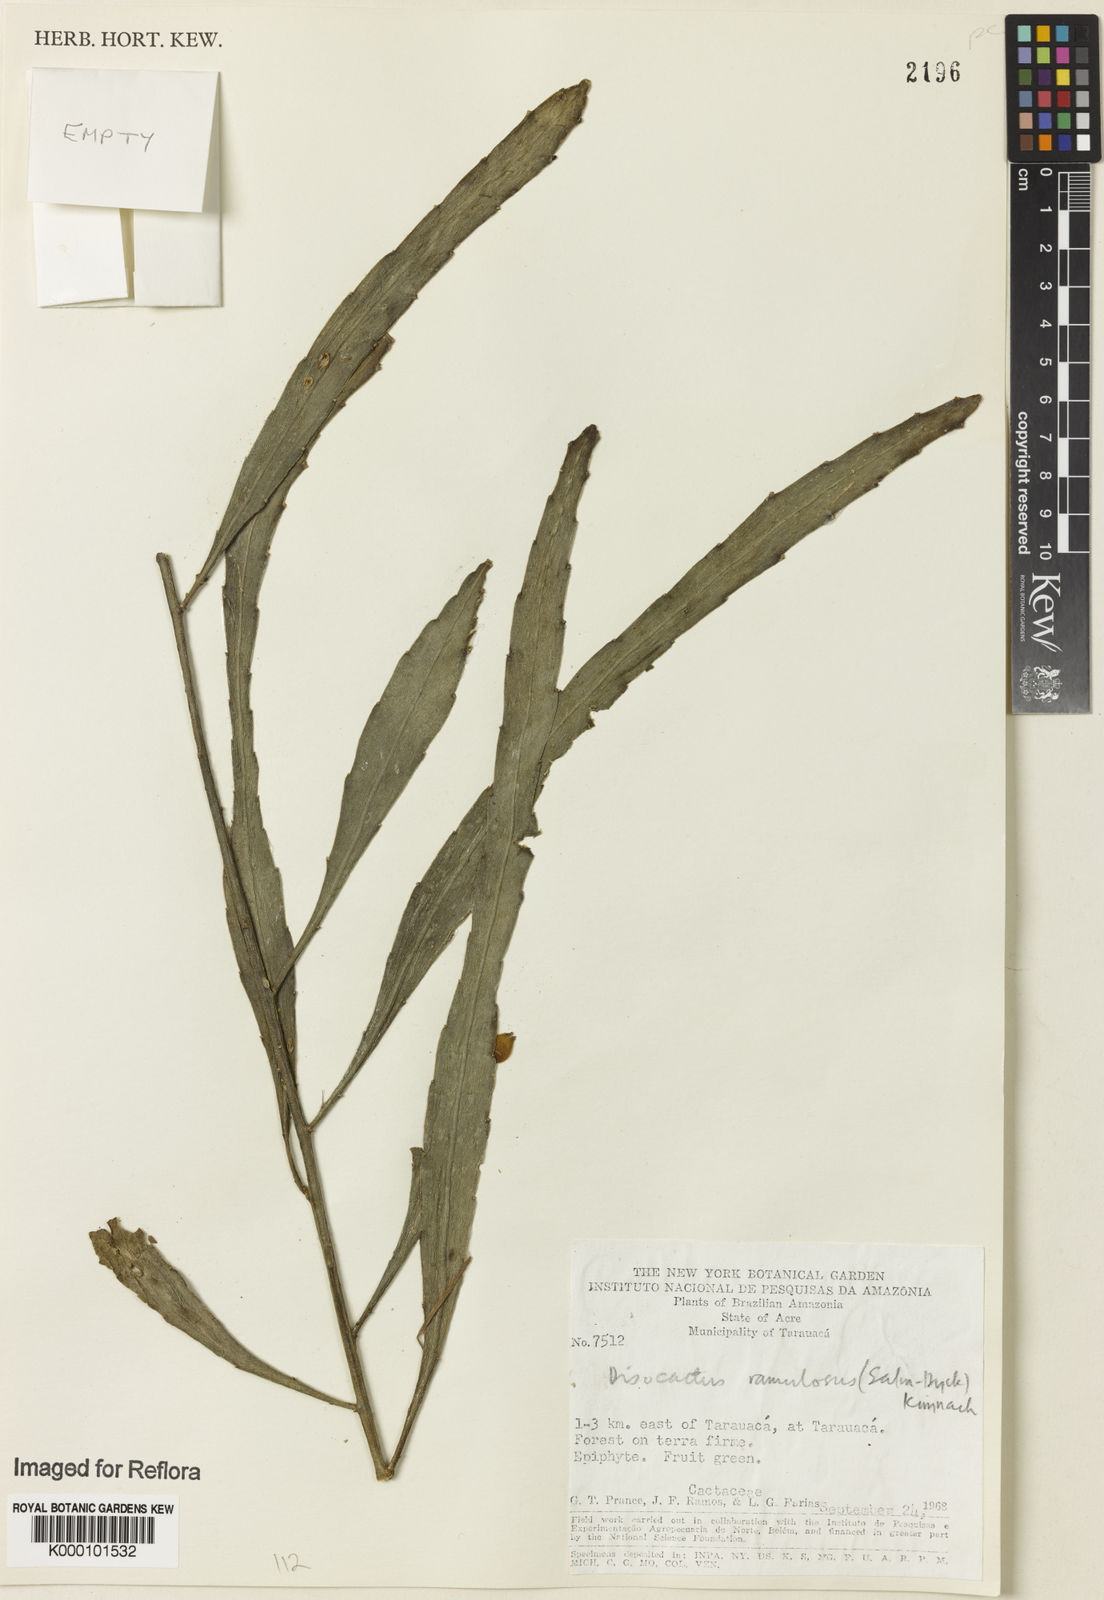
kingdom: Plantae
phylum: Tracheophyta
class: Magnoliopsida
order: Caryophyllales
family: Cactaceae
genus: Pseudorhipsalis
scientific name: Pseudorhipsalis
